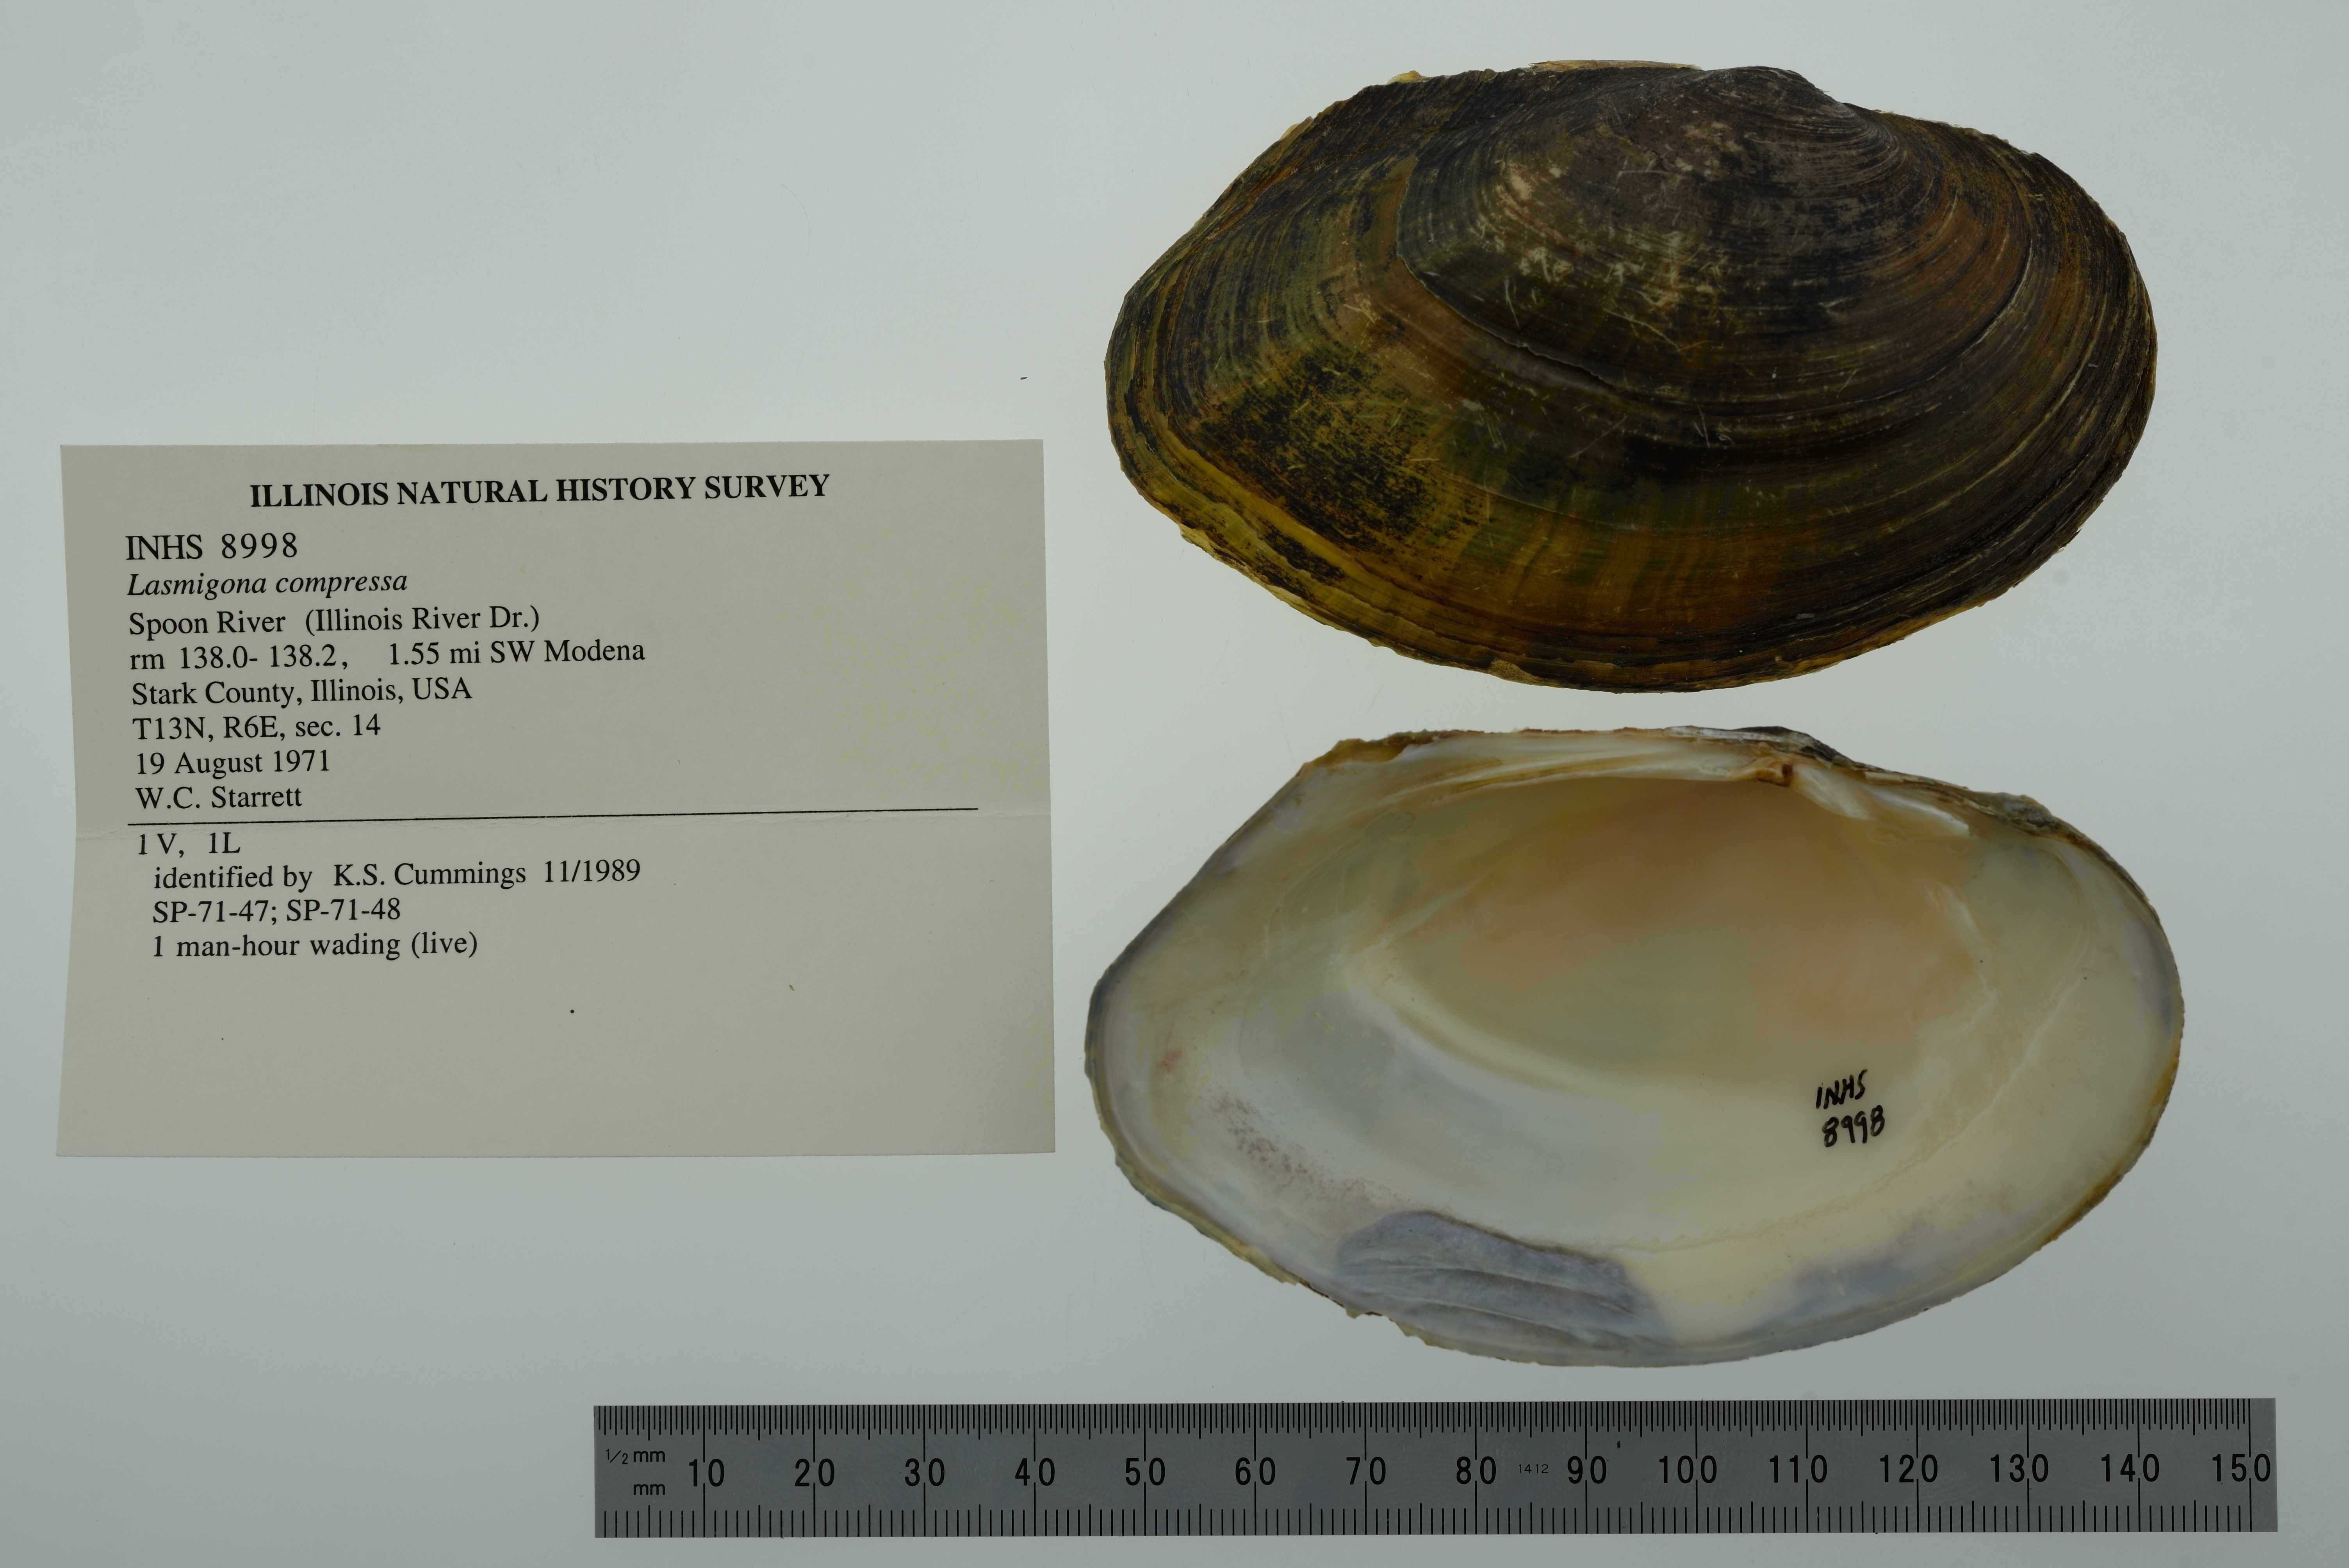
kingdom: Animalia
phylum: Mollusca
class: Bivalvia
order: Unionida
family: Unionidae
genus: Lasmigona
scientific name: Lasmigona compressa
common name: Creek heelsplitter
